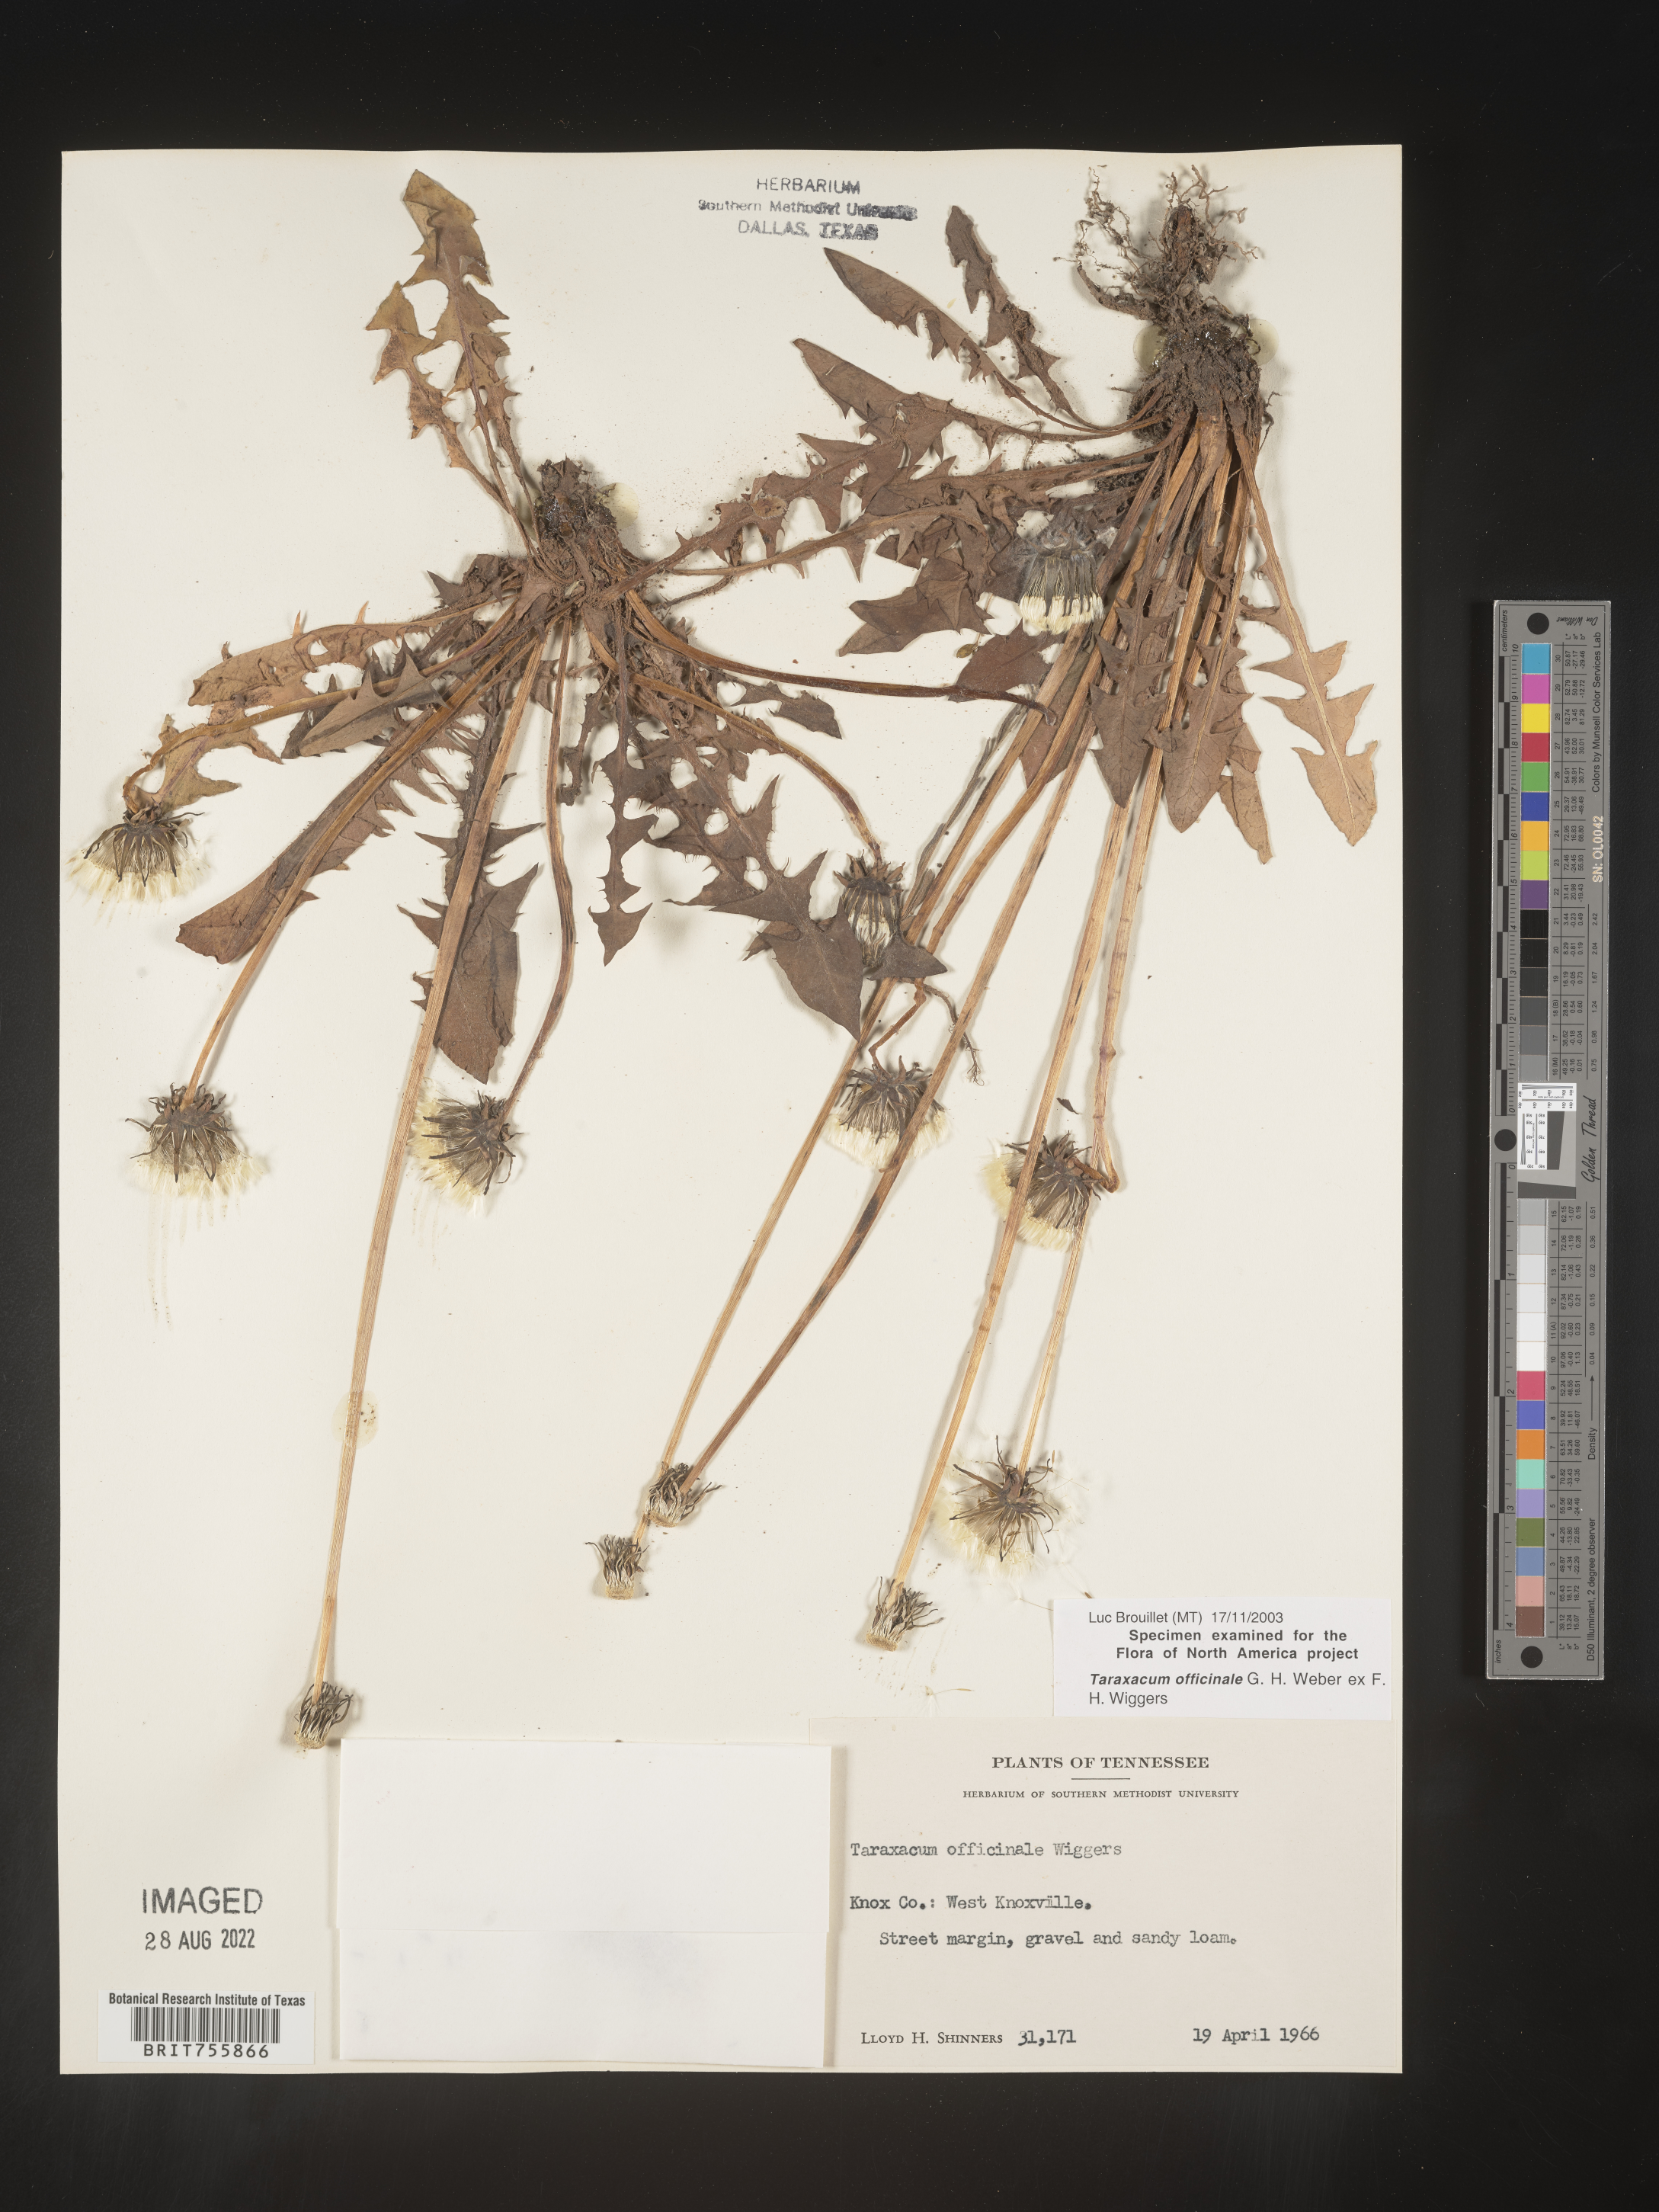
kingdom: Plantae
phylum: Tracheophyta
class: Magnoliopsida
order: Asterales
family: Asteraceae
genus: Taraxacum
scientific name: Taraxacum officinale
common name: Common dandelion
